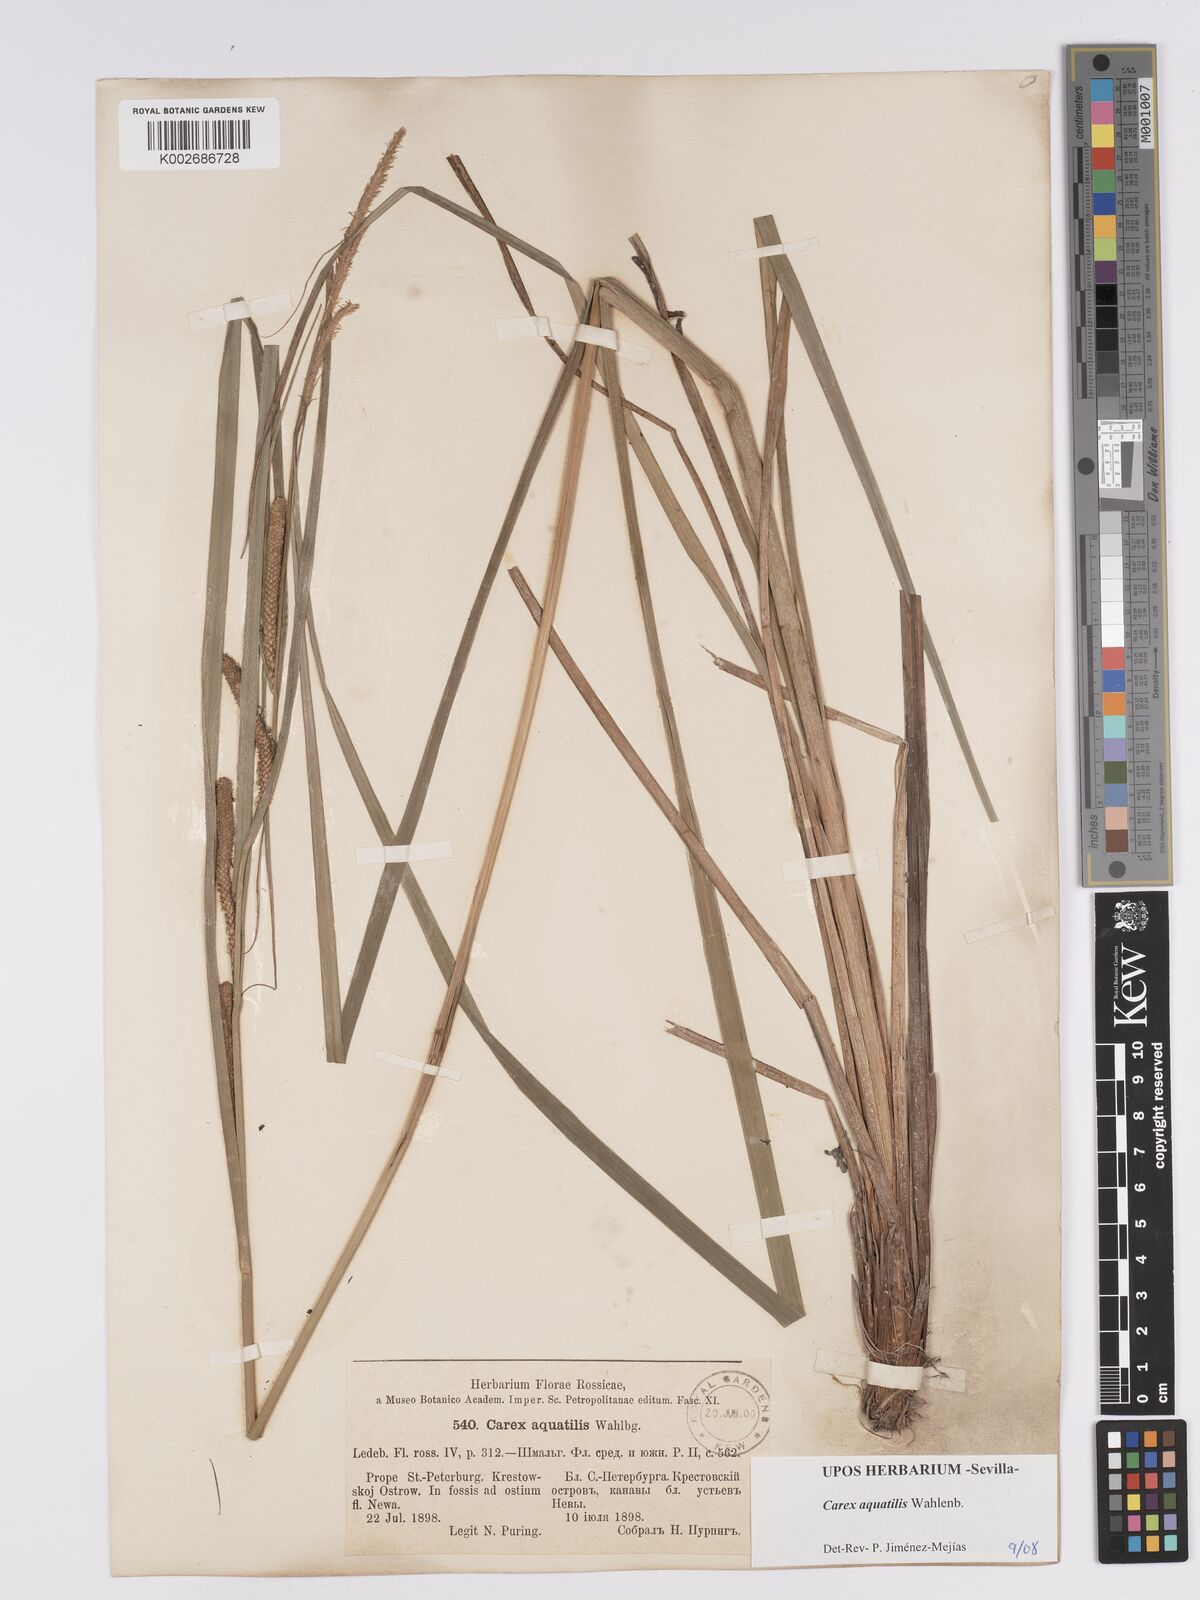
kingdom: Plantae
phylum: Tracheophyta
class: Liliopsida
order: Poales
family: Cyperaceae
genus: Carex
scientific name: Carex aquatilis
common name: Water sedge
